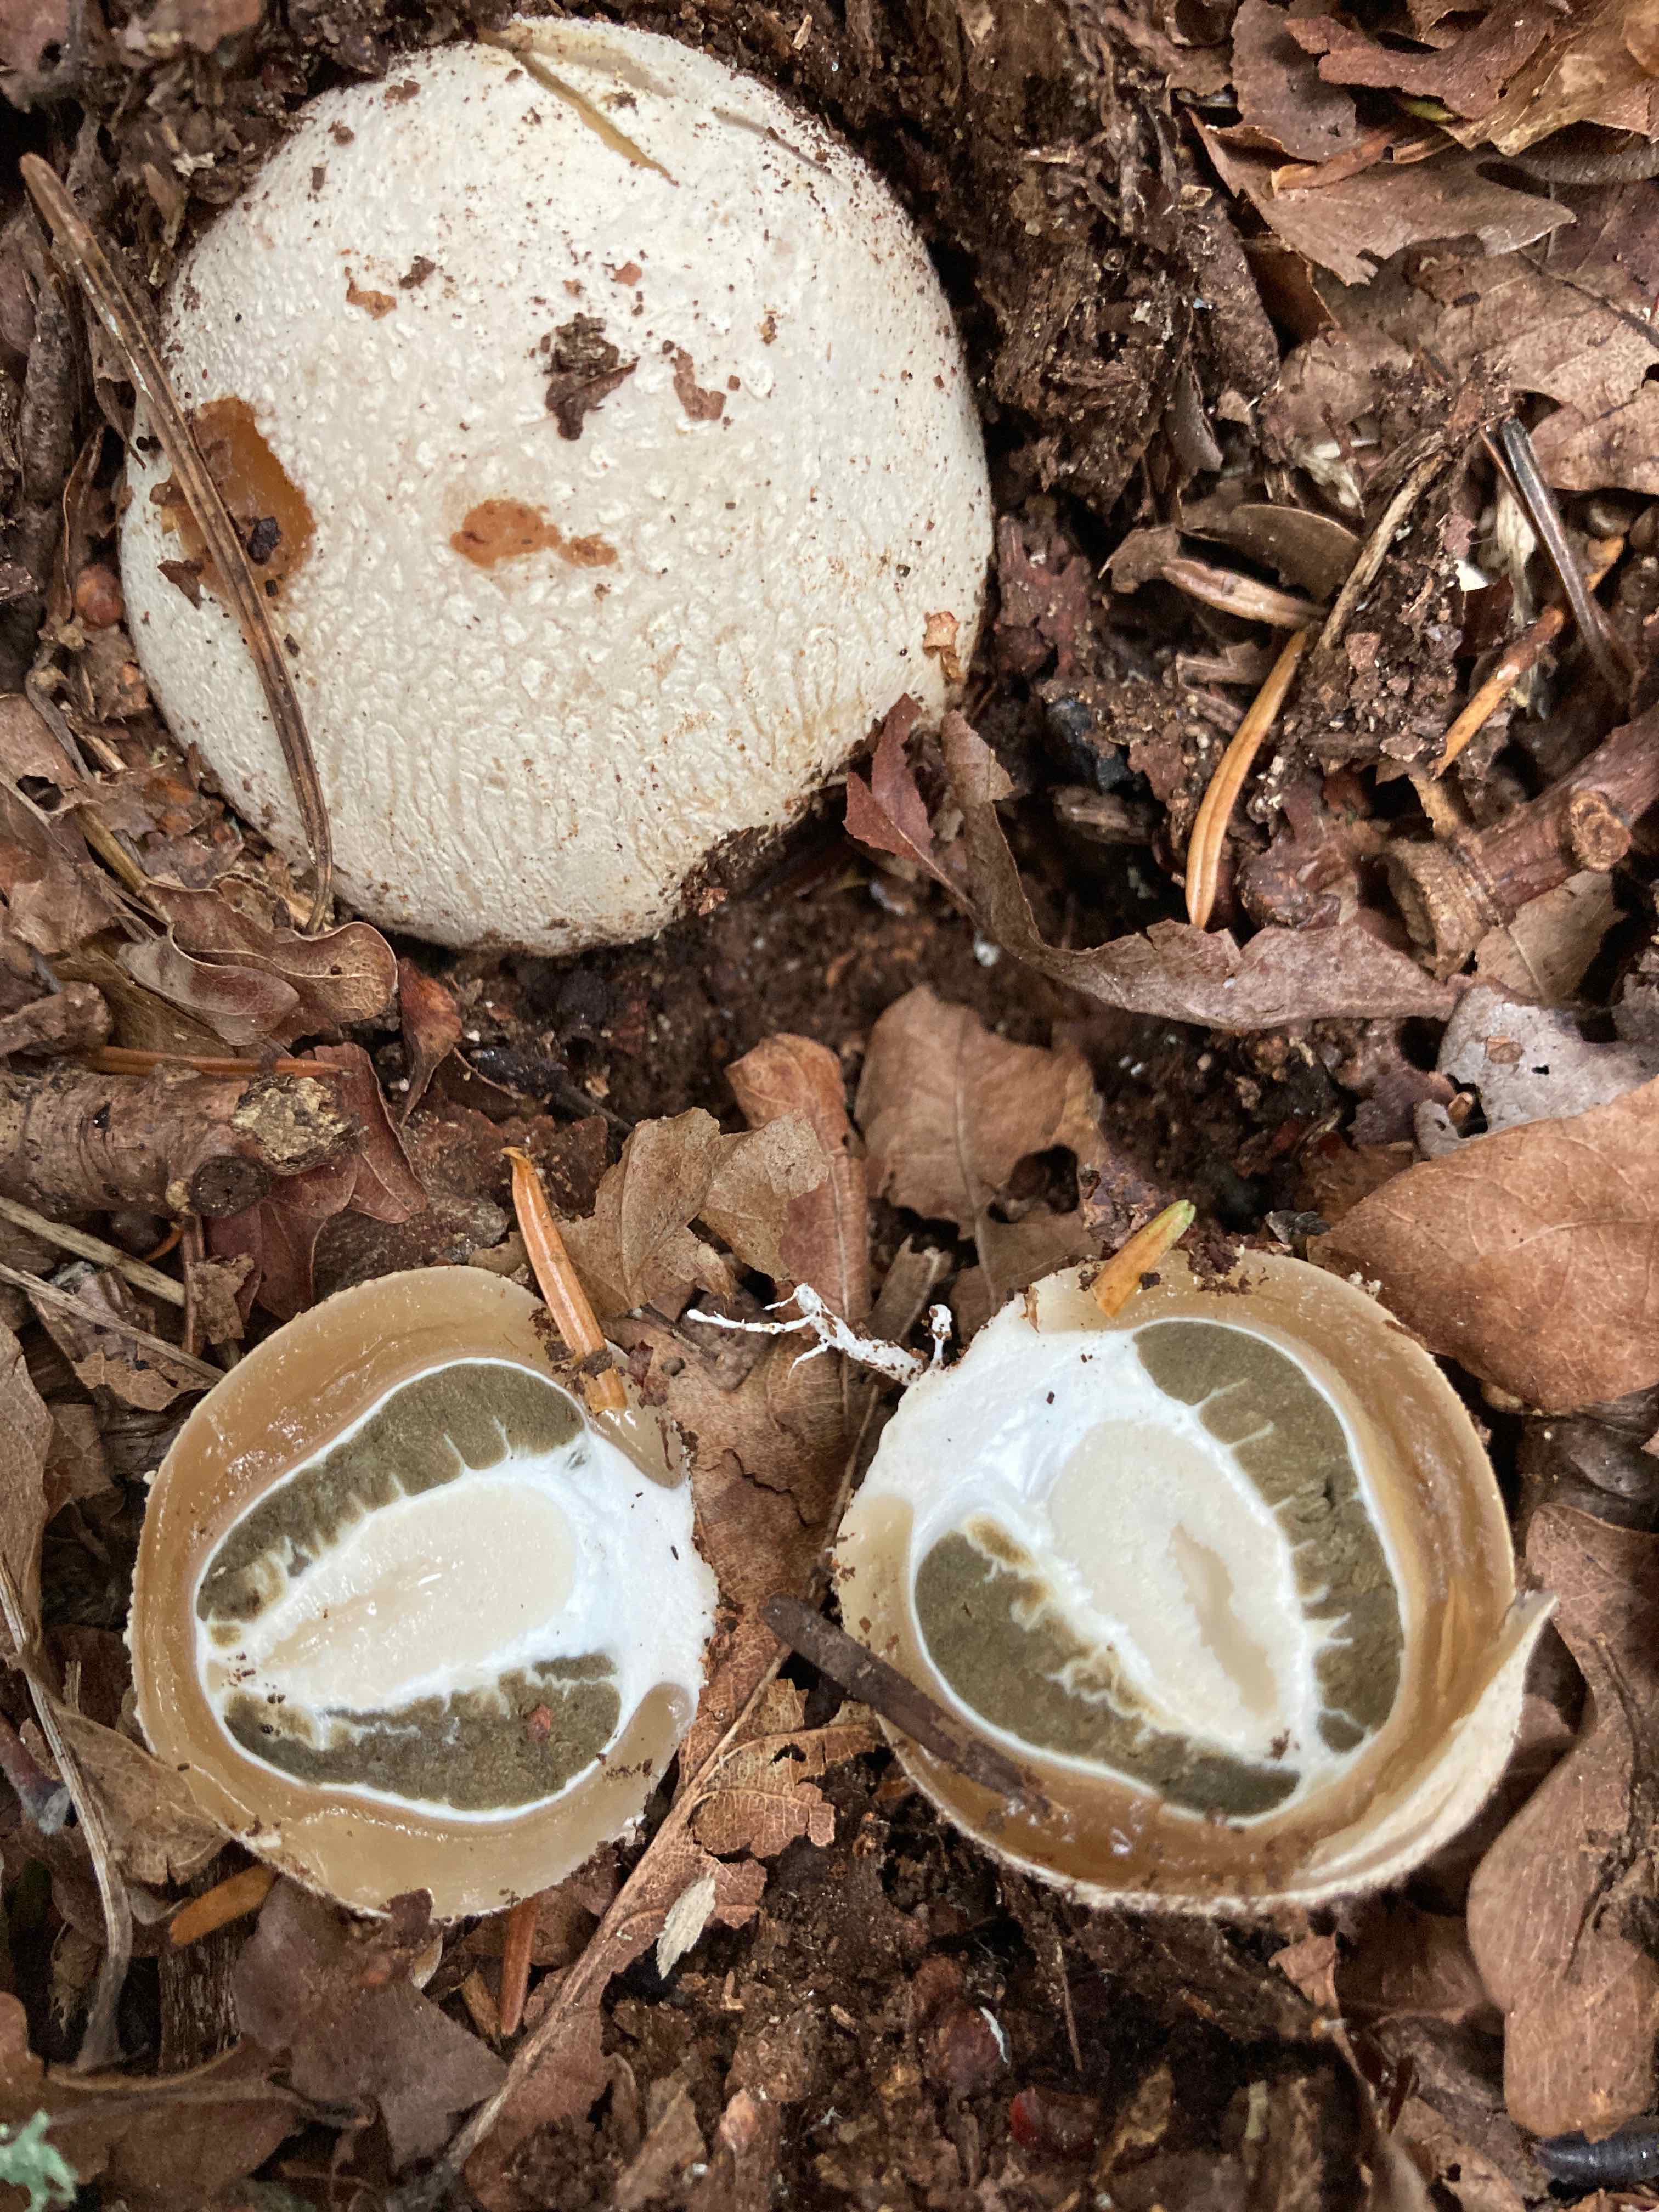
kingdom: Fungi
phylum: Basidiomycota
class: Agaricomycetes
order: Phallales
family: Phallaceae
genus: Phallus
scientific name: Phallus impudicus
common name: almindelig stinksvamp
